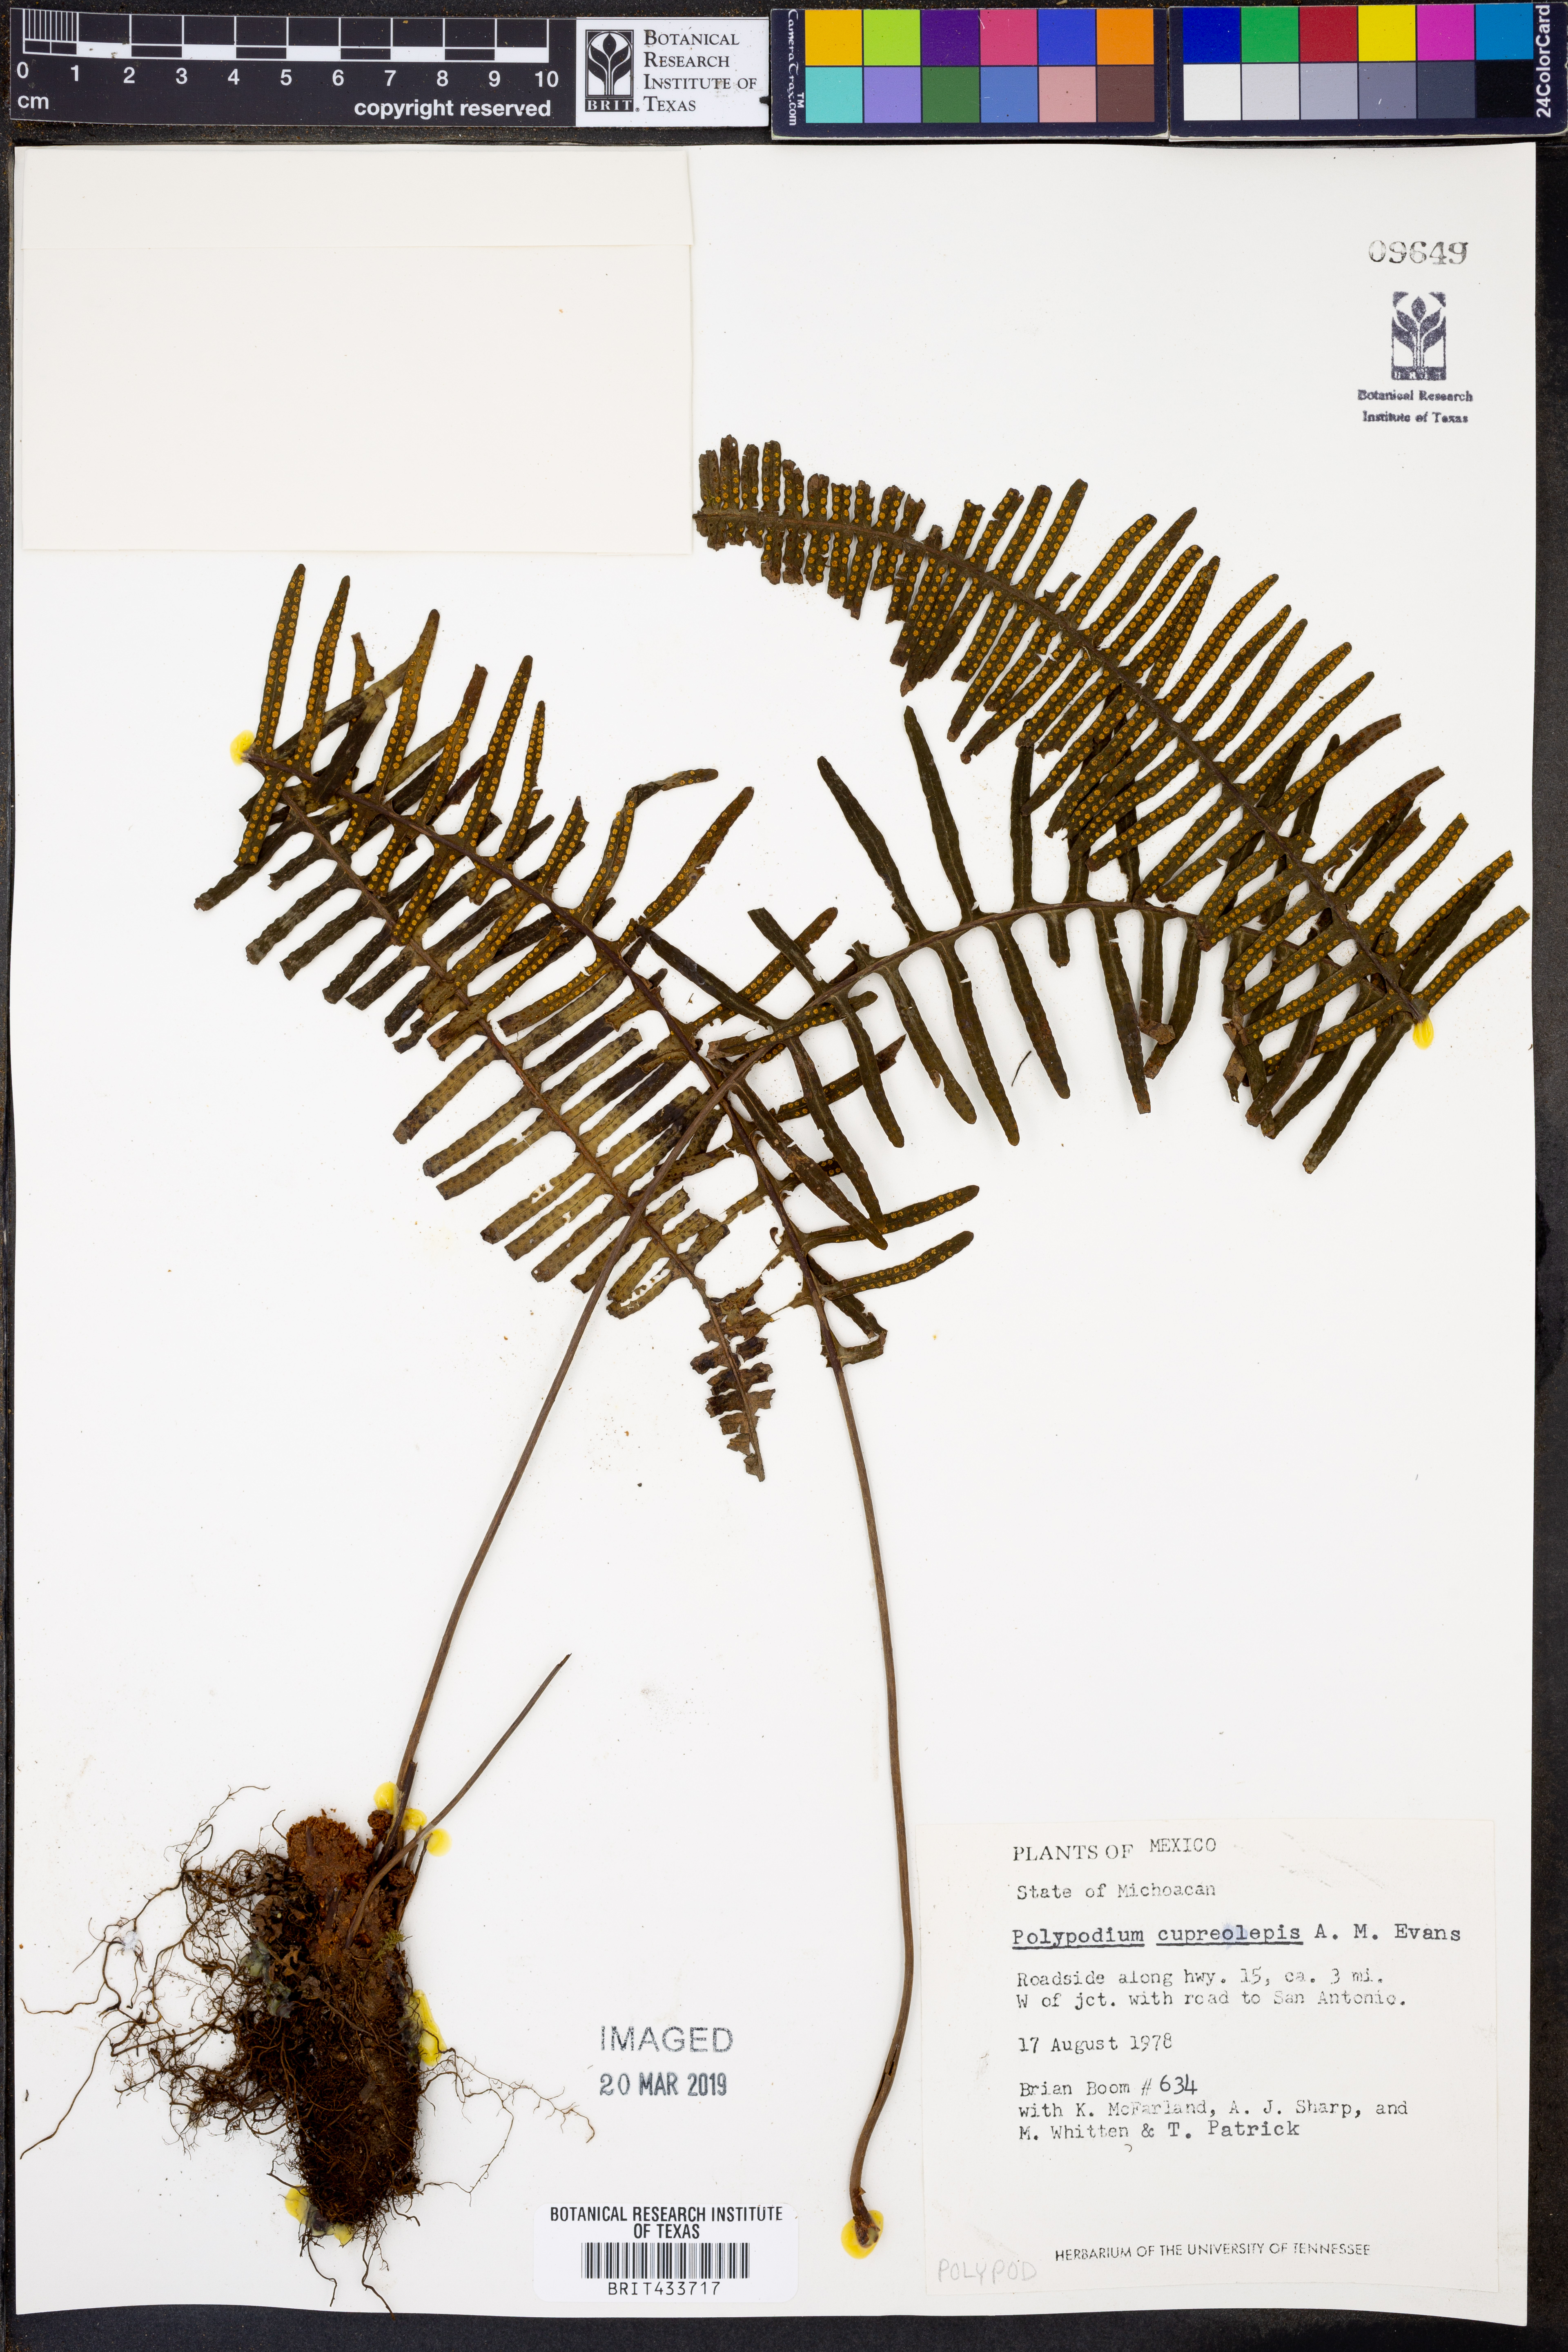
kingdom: Plantae
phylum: Tracheophyta
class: Polypodiopsida
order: Polypodiales
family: Polypodiaceae
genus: Pecluma
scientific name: Pecluma alfredii
